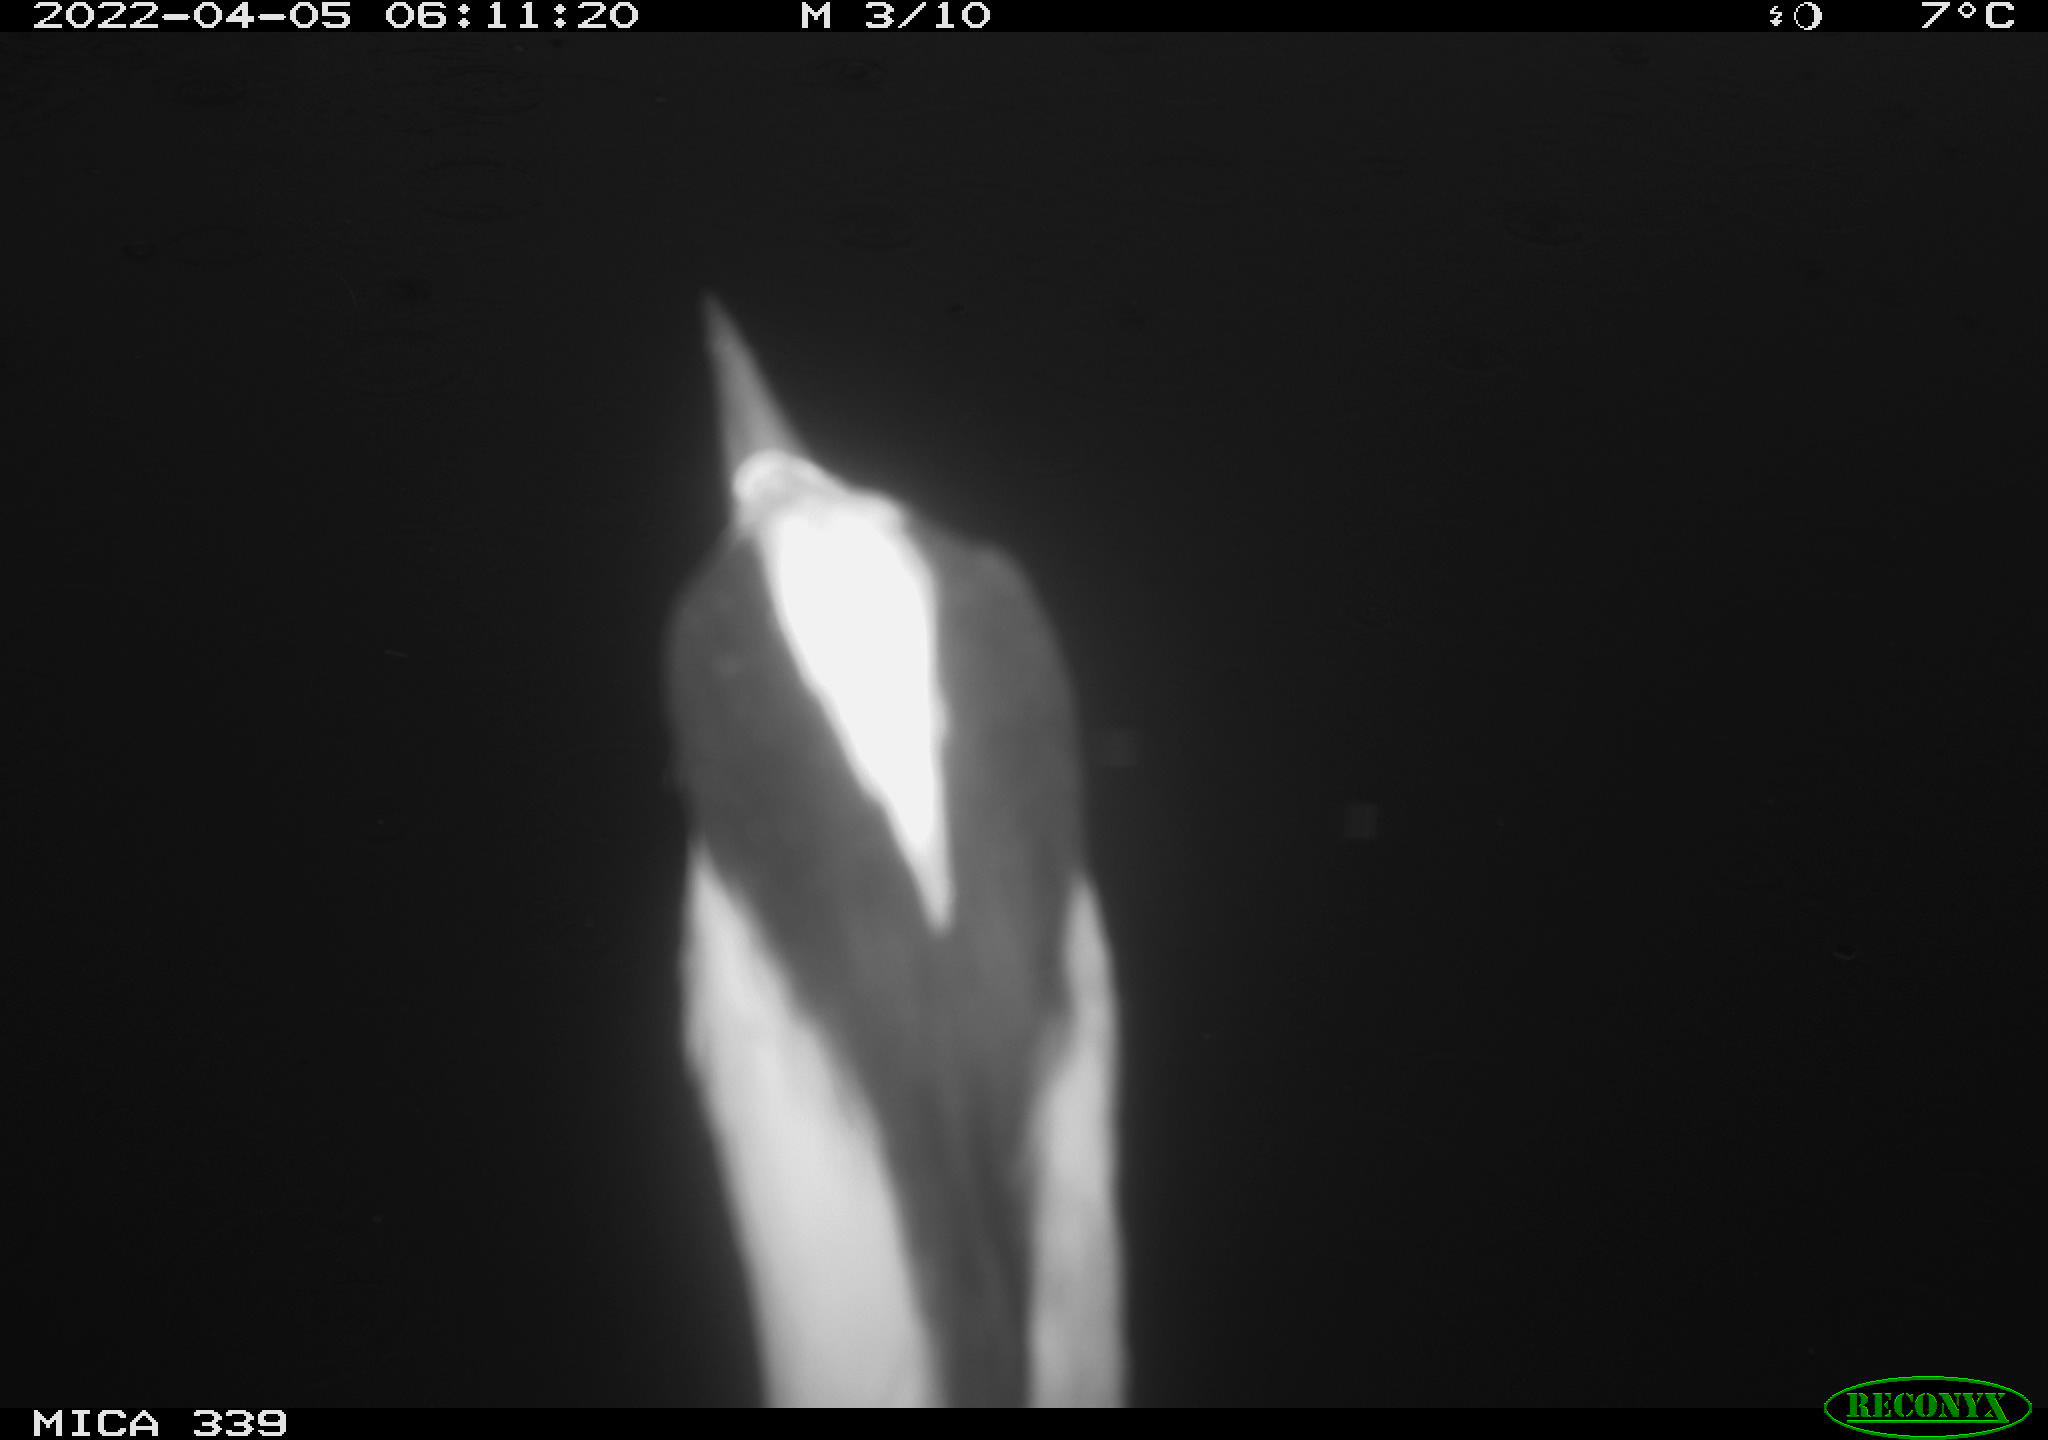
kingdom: Animalia
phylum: Chordata
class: Aves
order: Pelecaniformes
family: Ardeidae
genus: Ardea
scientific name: Ardea cinerea
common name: Grey heron
